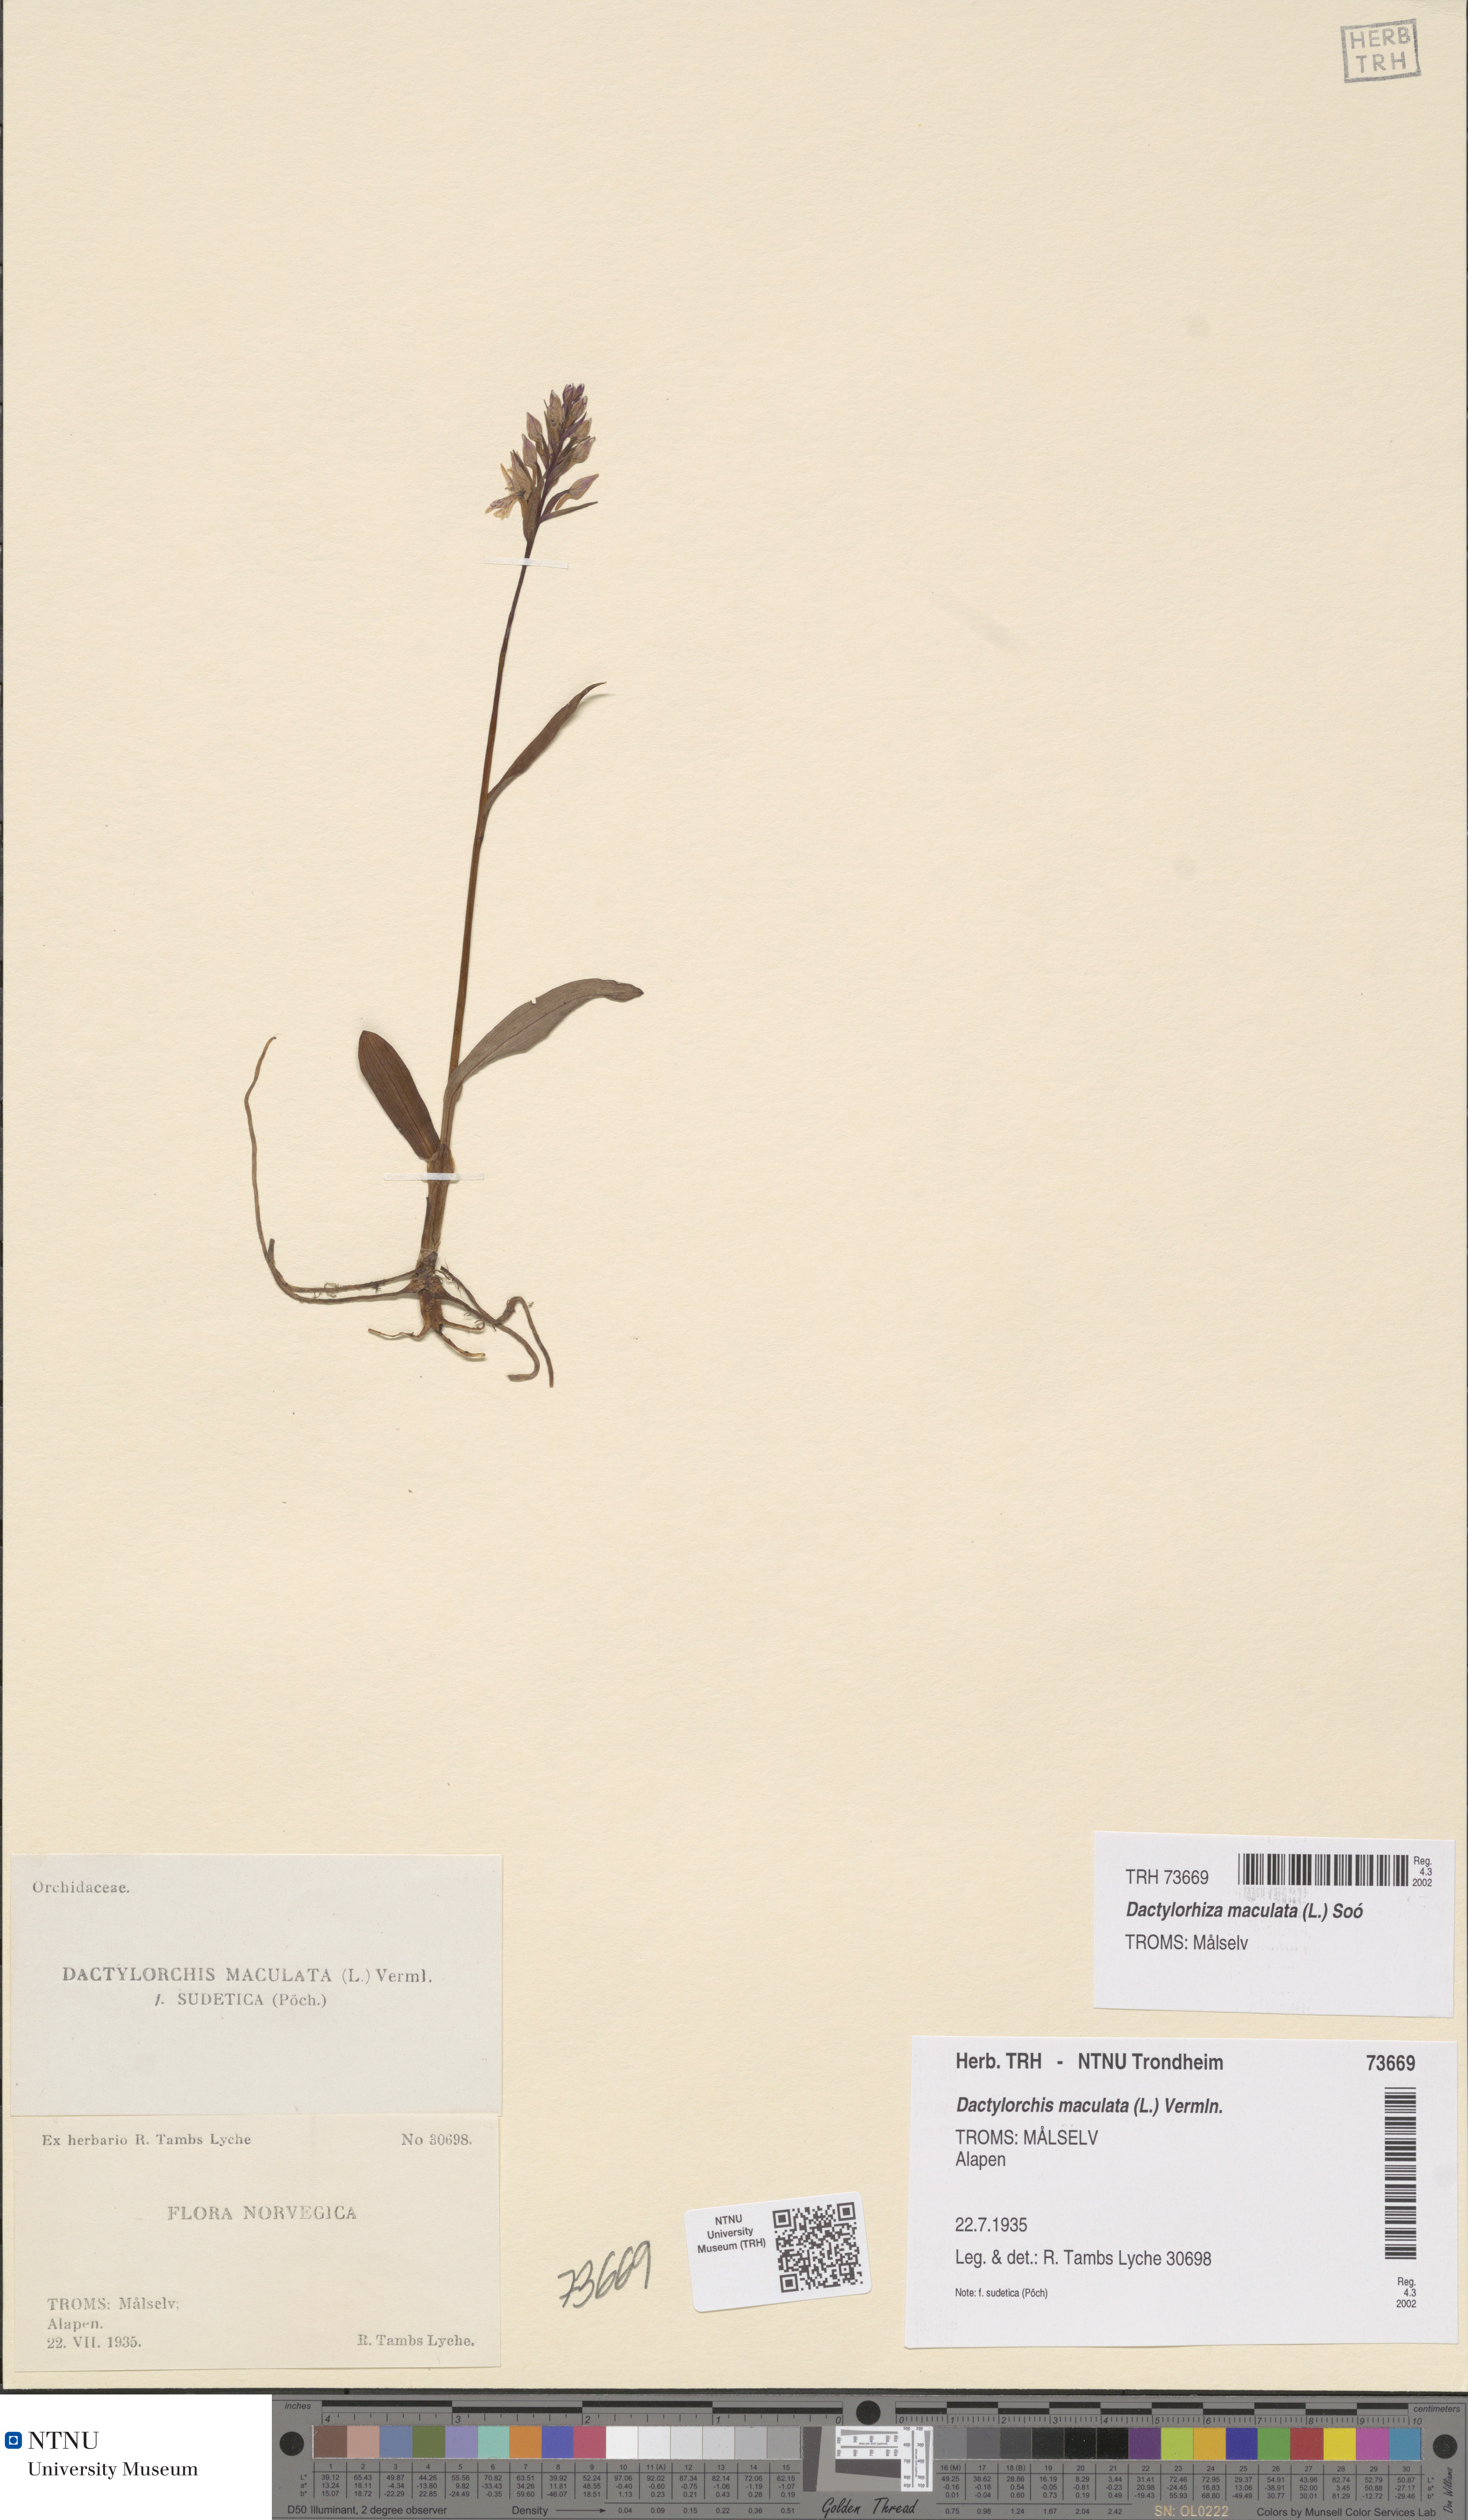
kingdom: Plantae
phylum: Tracheophyta
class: Liliopsida
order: Asparagales
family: Orchidaceae
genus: Dactylorhiza
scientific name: Dactylorhiza maculata
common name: Heath spotted-orchid
